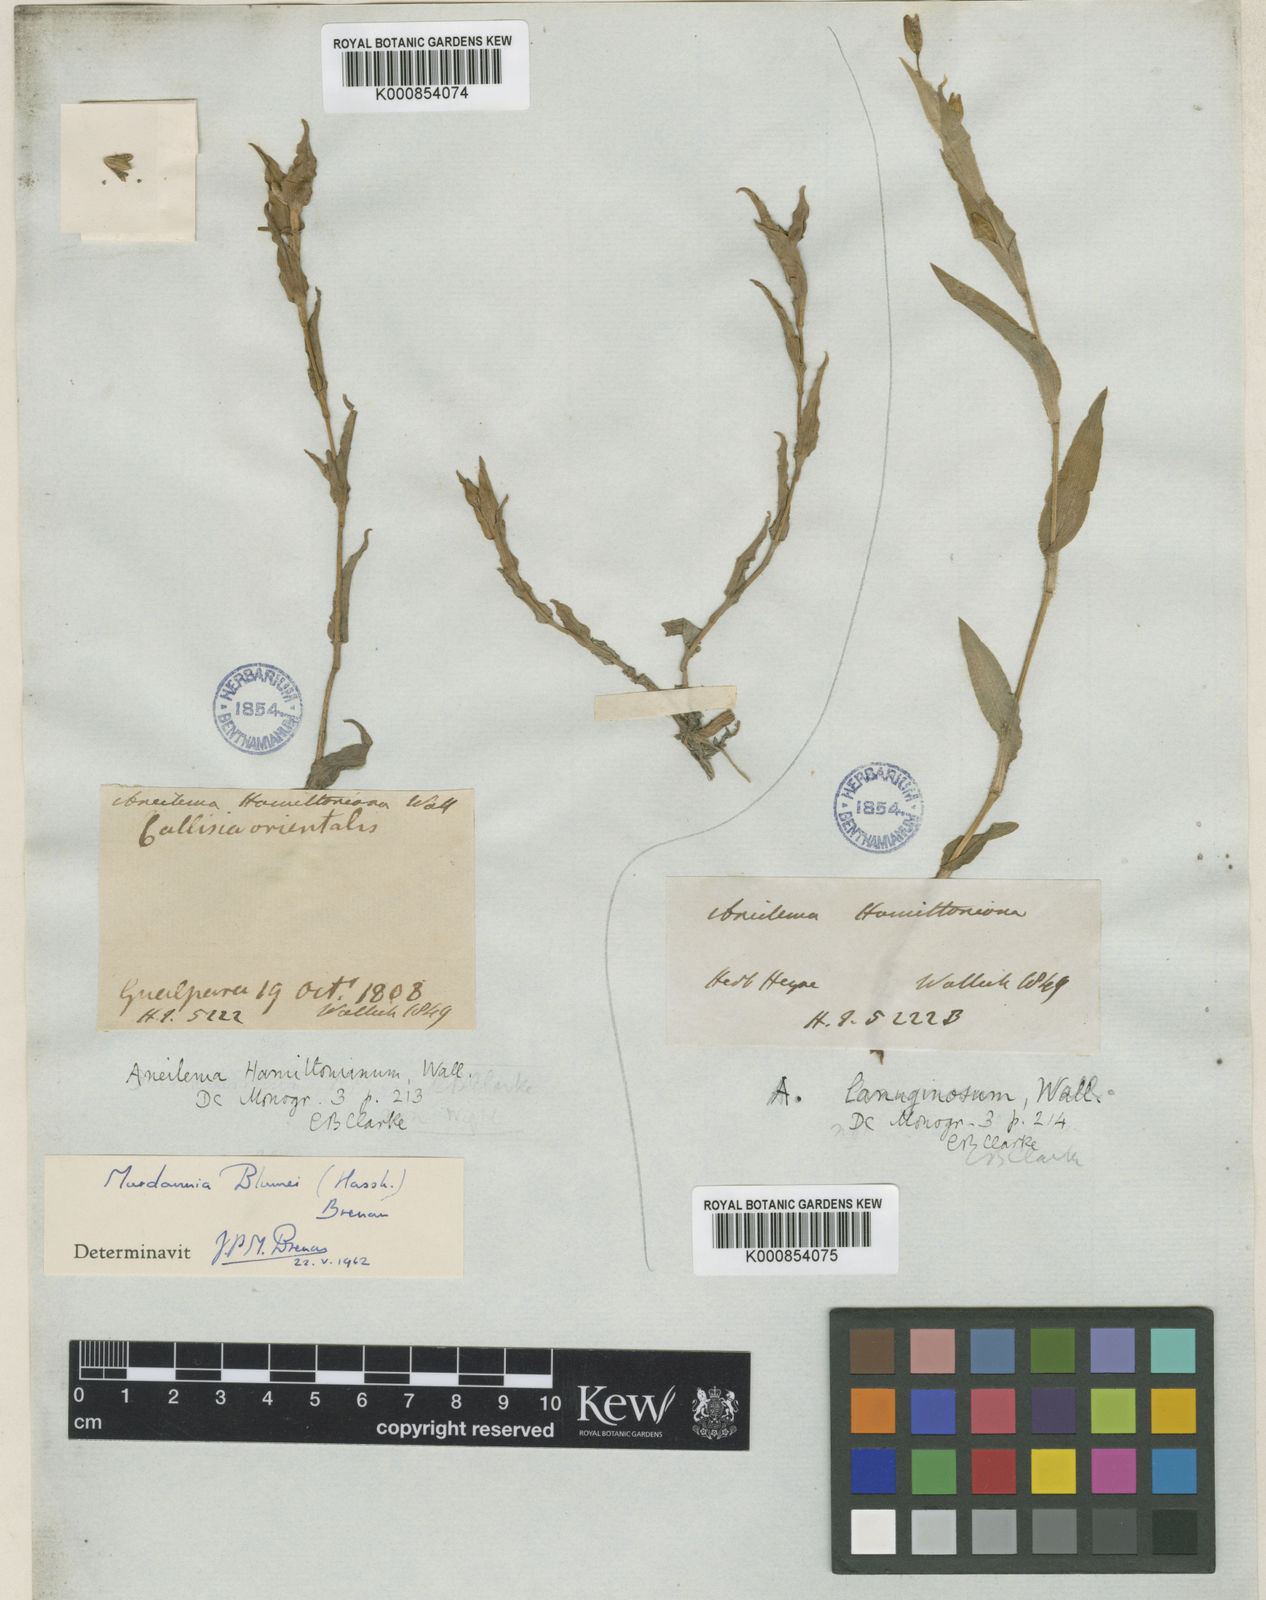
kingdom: Plantae
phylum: Tracheophyta
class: Liliopsida
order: Commelinales
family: Commelinaceae
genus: Murdannia
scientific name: Murdannia blumei
